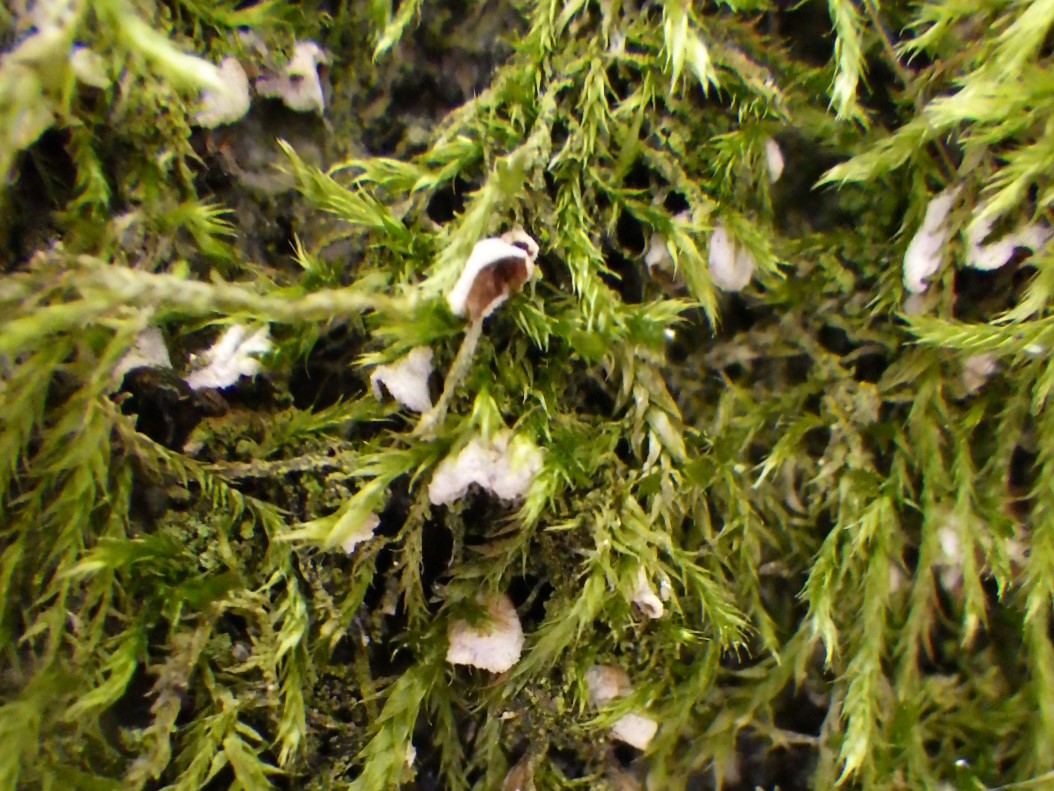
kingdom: Fungi
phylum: Basidiomycota
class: Agaricomycetes
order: Agaricales
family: Chromocyphellaceae
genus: Chromocyphella
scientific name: Chromocyphella muscicola
